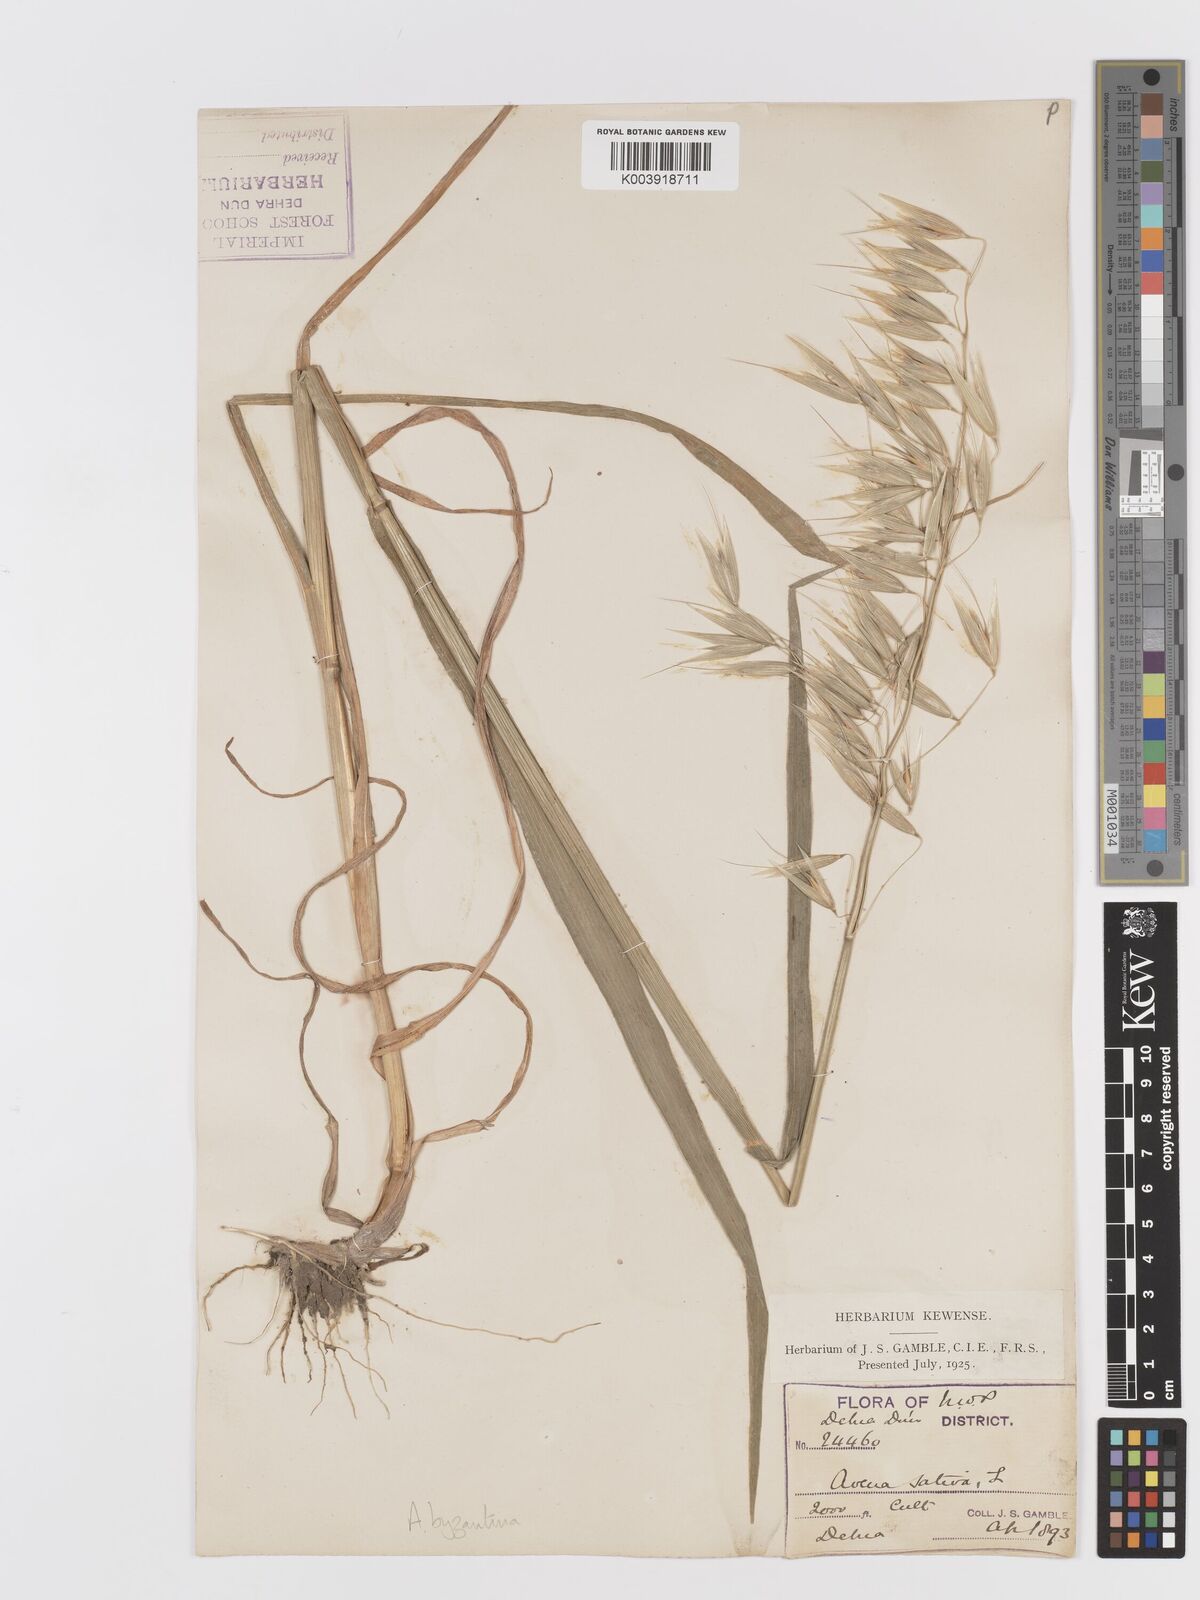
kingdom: Plantae
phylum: Tracheophyta
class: Liliopsida
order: Poales
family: Poaceae
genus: Avena
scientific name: Avena byzantina
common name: Algerian oat
